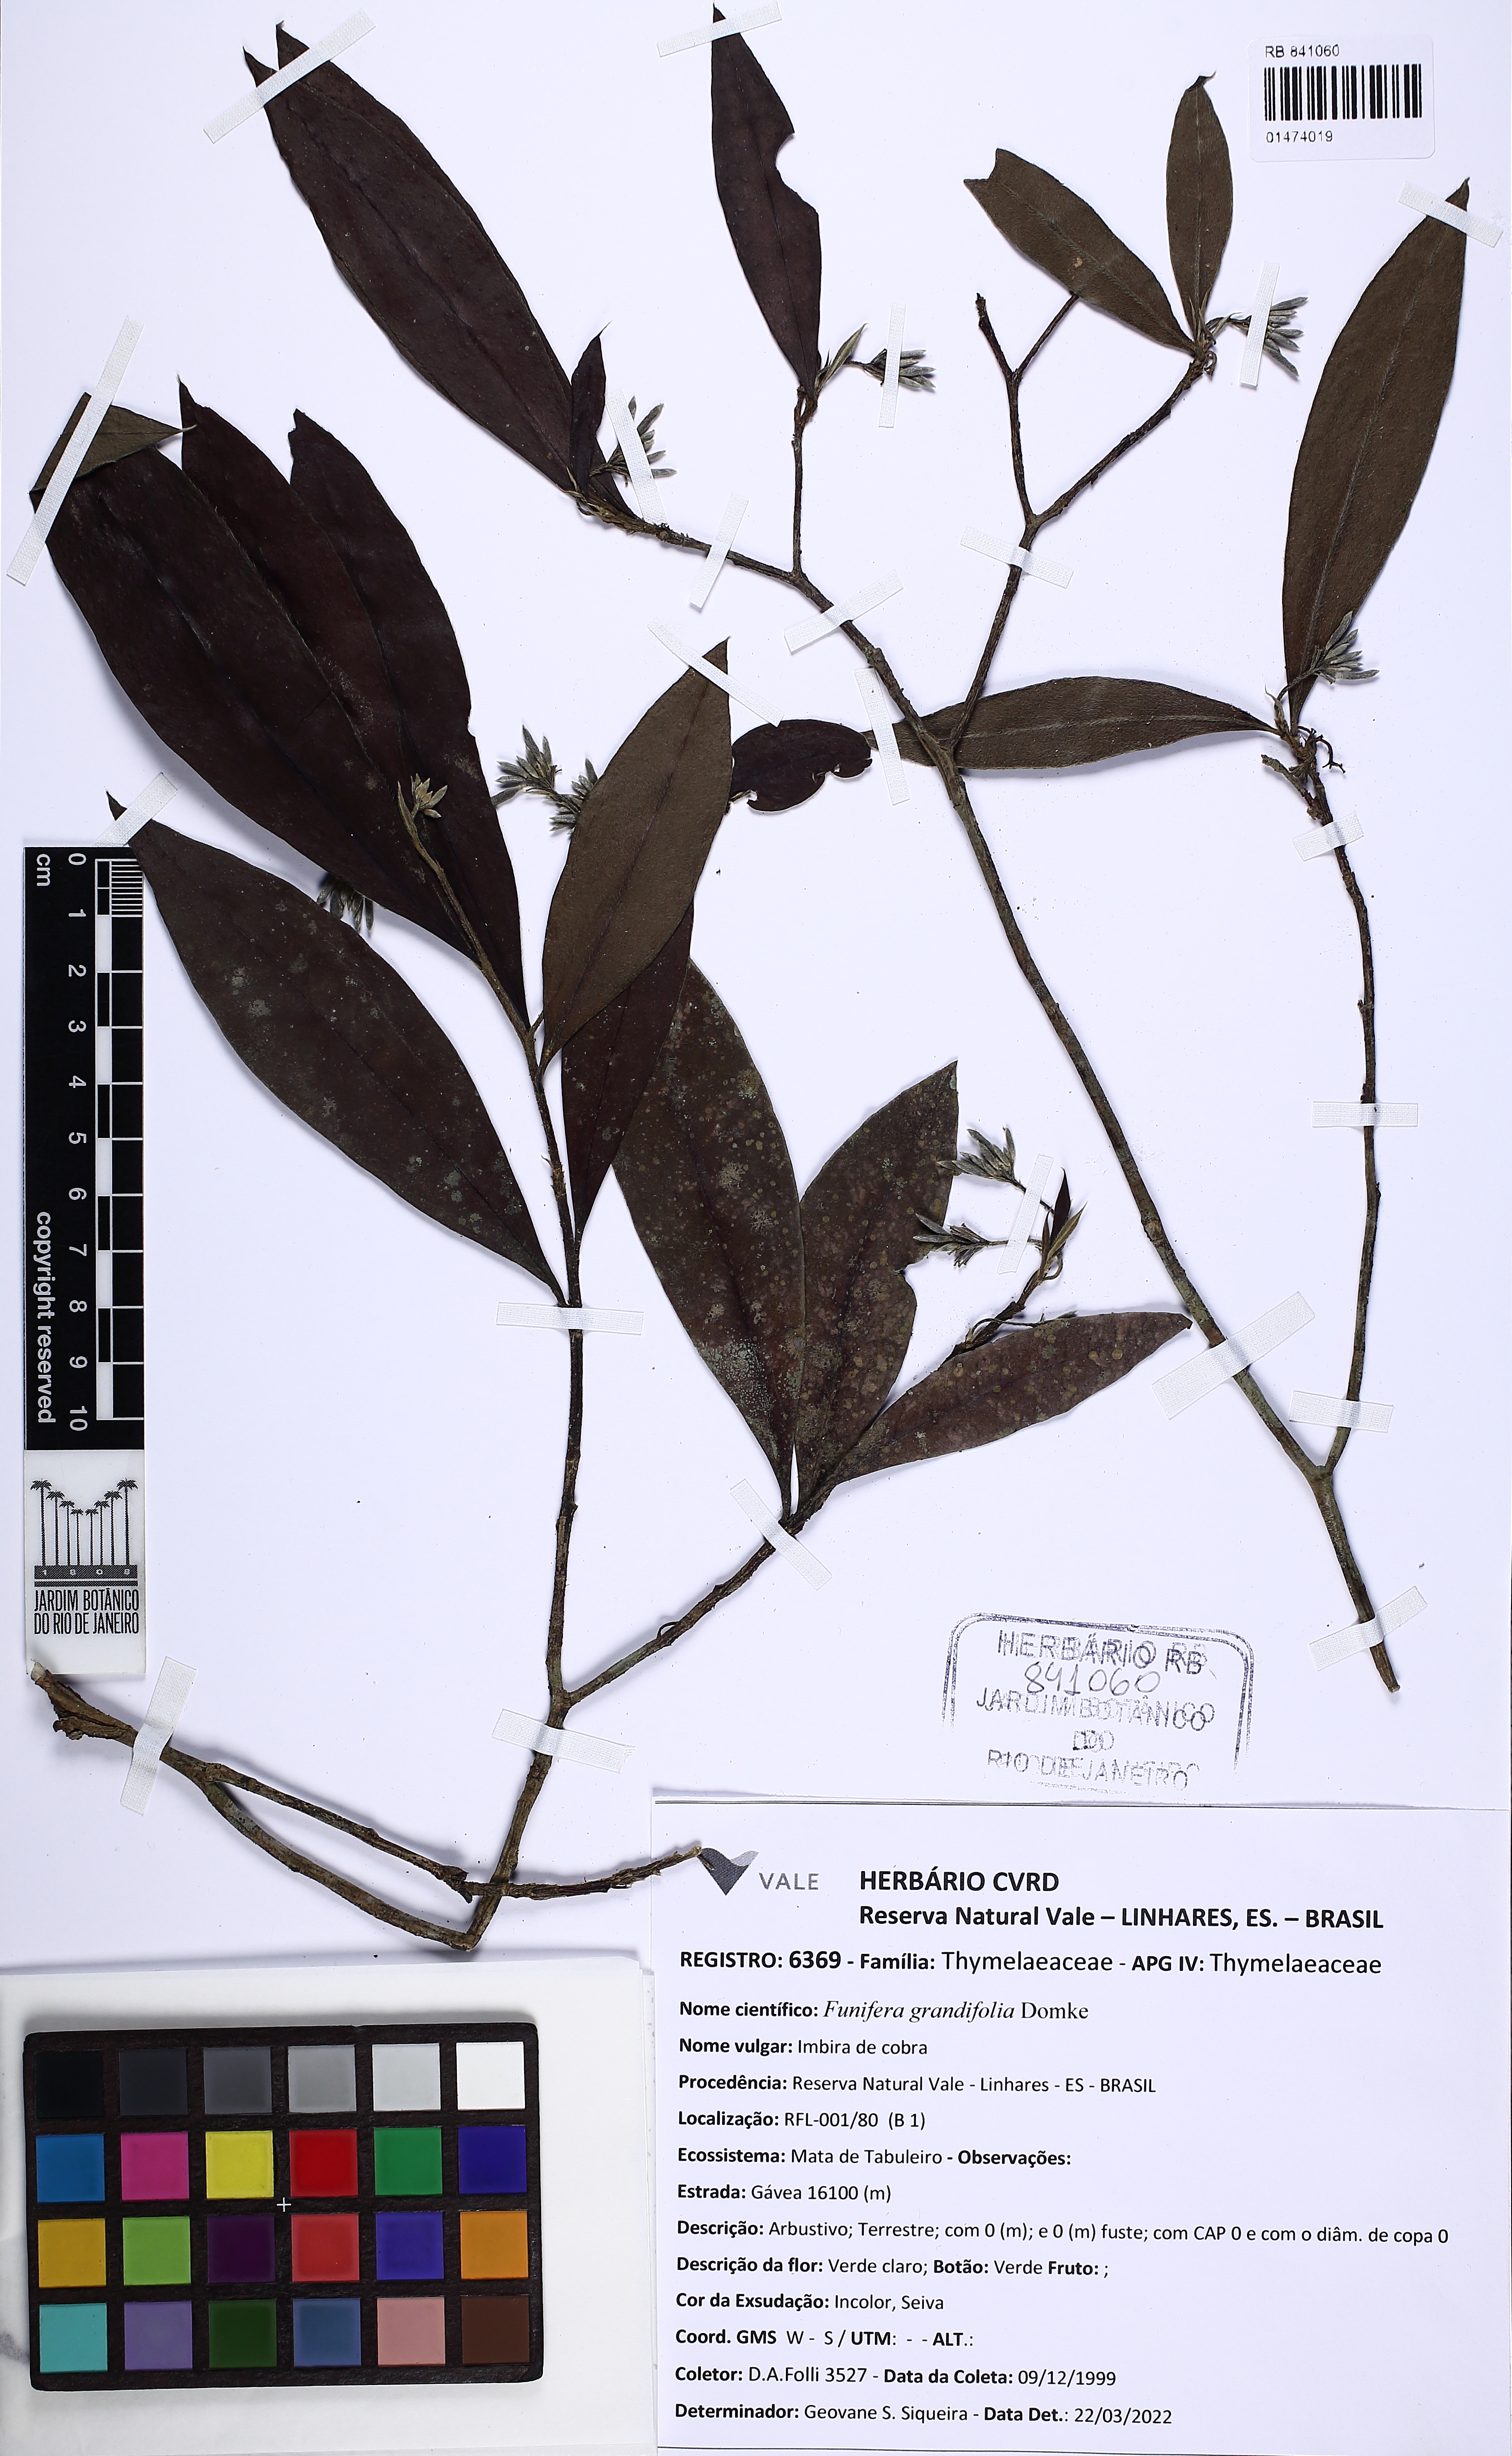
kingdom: Plantae
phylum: Tracheophyta
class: Magnoliopsida
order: Malvales
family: Thymelaeaceae
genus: Funifera
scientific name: Funifera grandifolia
